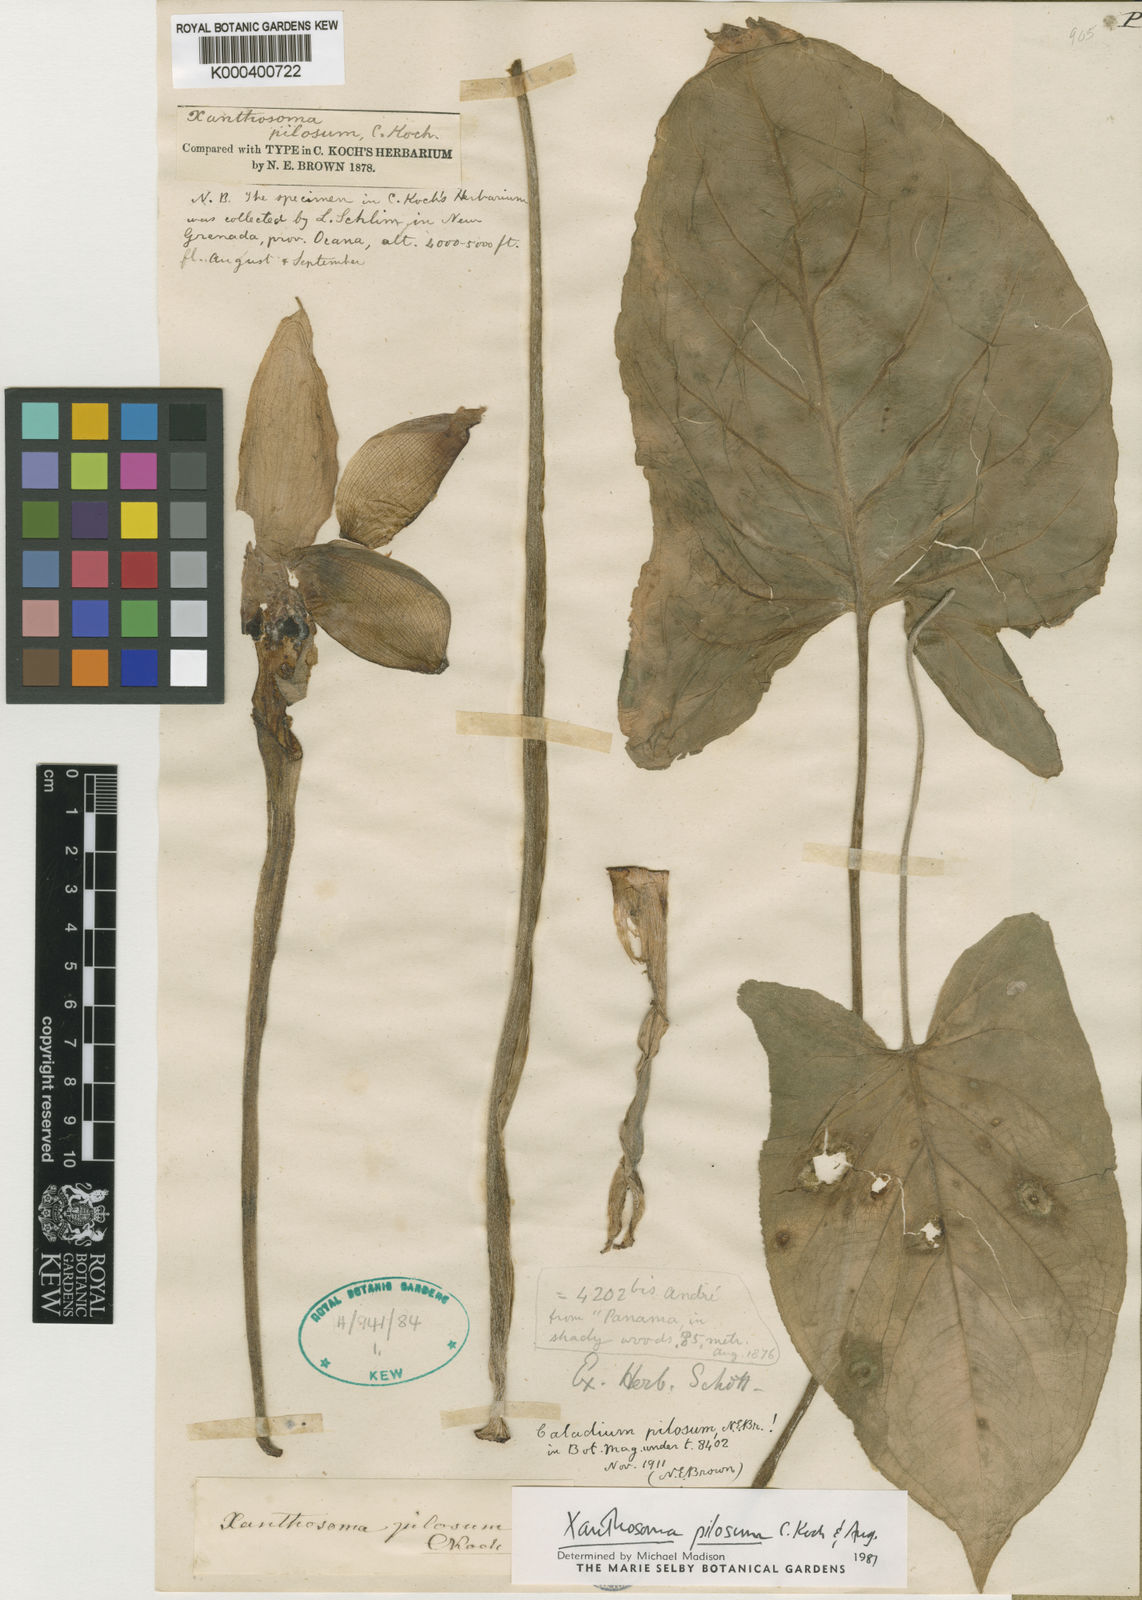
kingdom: Plantae
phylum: Tracheophyta
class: Liliopsida
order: Alismatales
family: Araceae
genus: Xanthosoma
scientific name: Xanthosoma mexicanum
